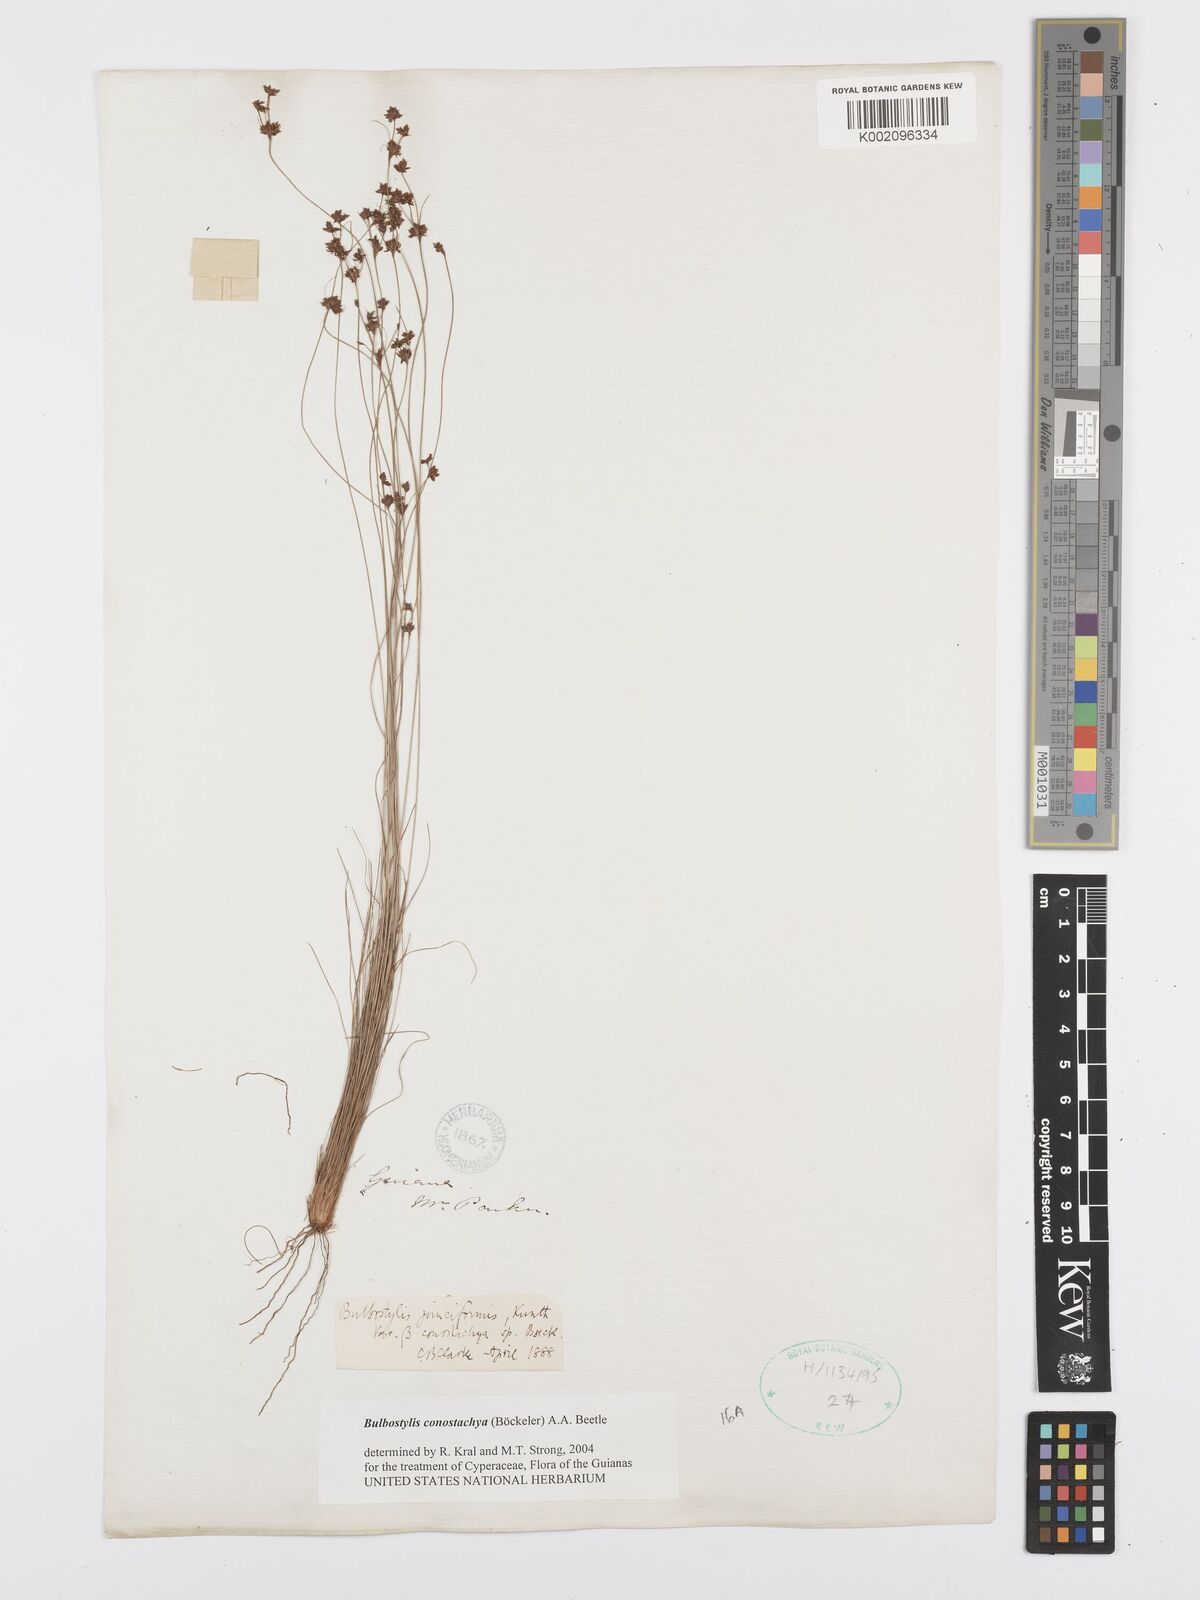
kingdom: Plantae
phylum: Tracheophyta
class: Liliopsida
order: Poales
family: Cyperaceae
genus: Bulbostylis
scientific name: Bulbostylis conostachya
